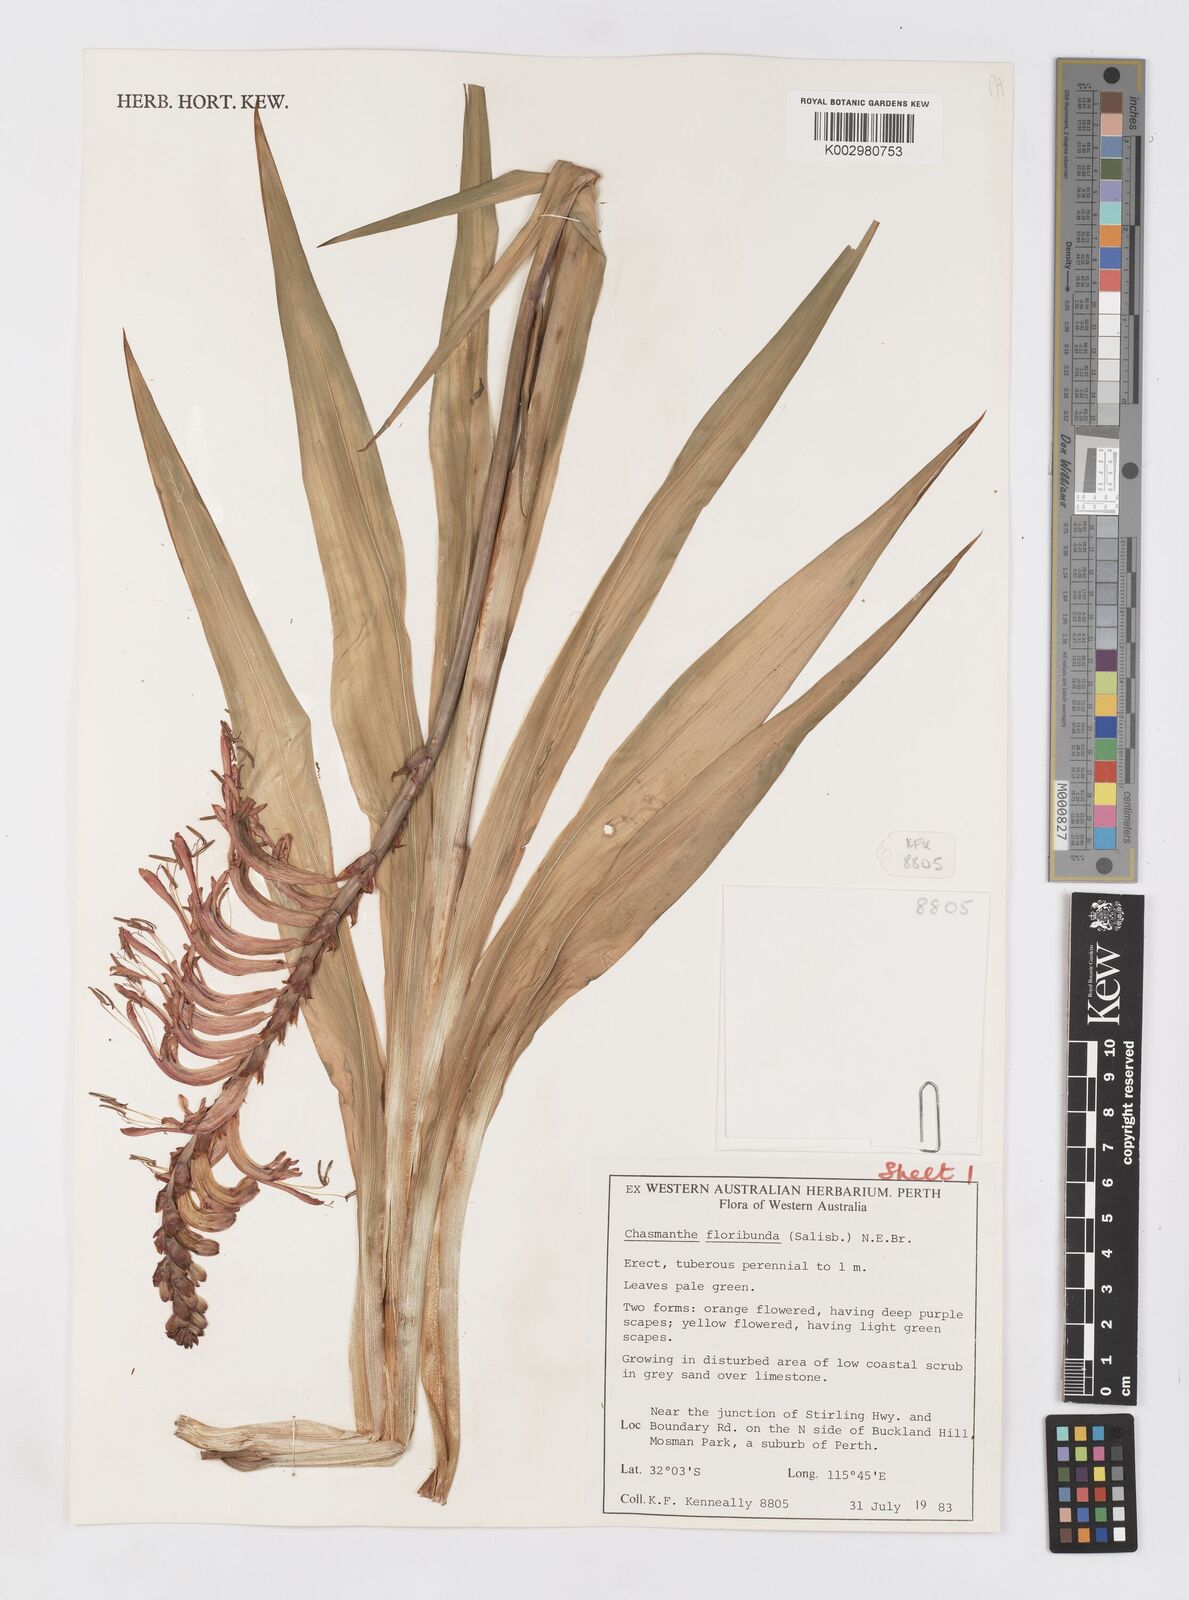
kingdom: Plantae
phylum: Tracheophyta
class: Liliopsida
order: Asparagales
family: Iridaceae
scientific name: Iridaceae
